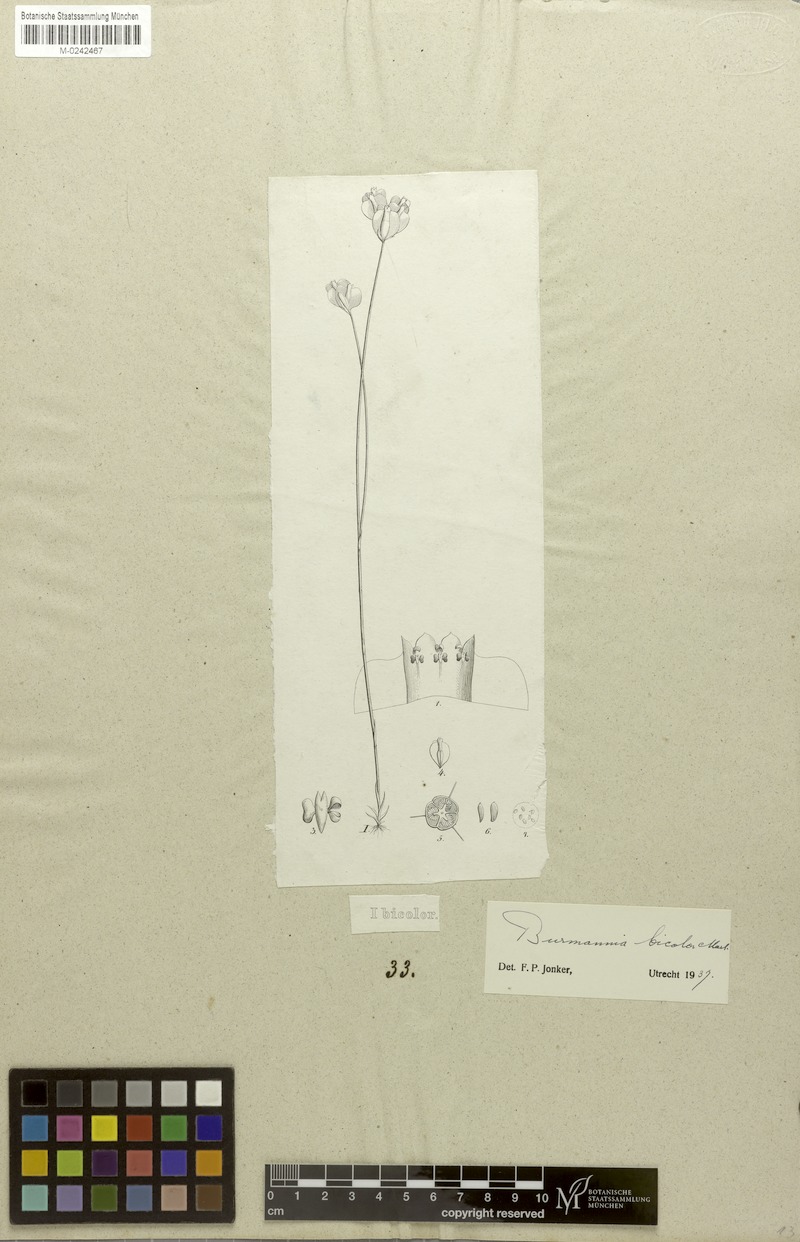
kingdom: Plantae
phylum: Tracheophyta
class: Liliopsida
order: Dioscoreales
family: Burmanniaceae
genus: Burmannia
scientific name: Burmannia bicolor
